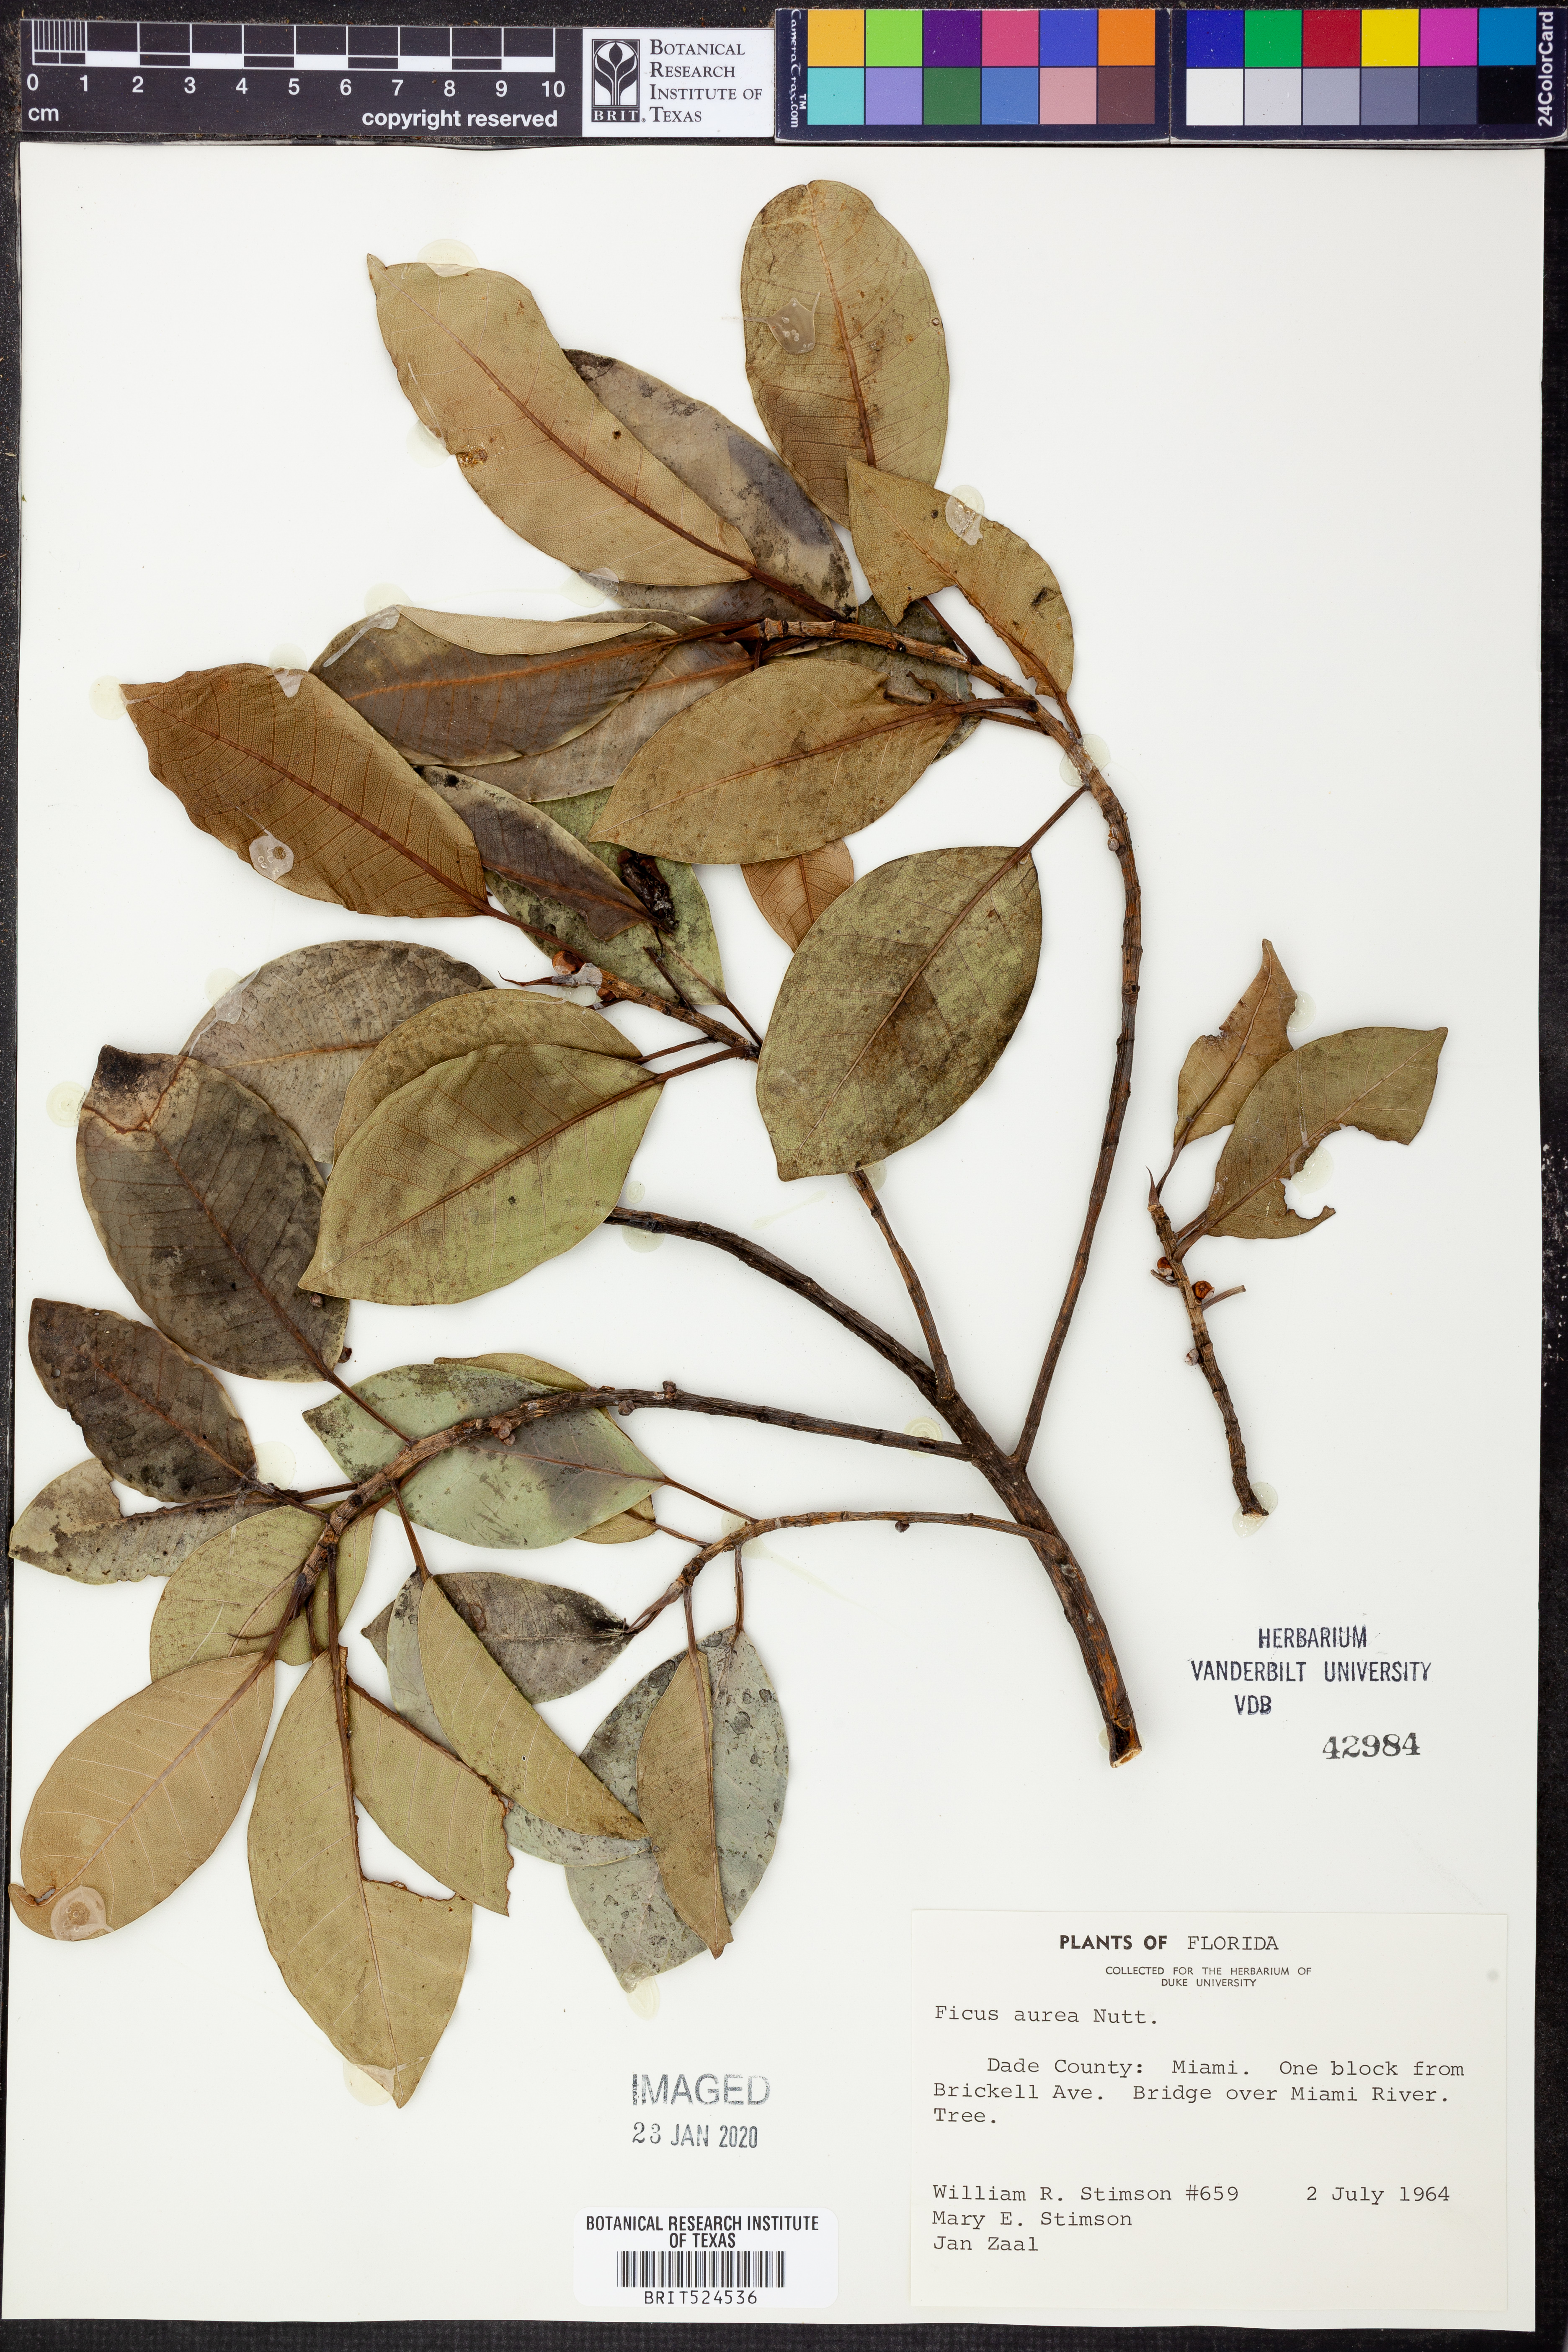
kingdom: Plantae
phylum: Tracheophyta
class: Magnoliopsida
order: Rosales
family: Moraceae
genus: Ficus
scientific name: Ficus aurea
